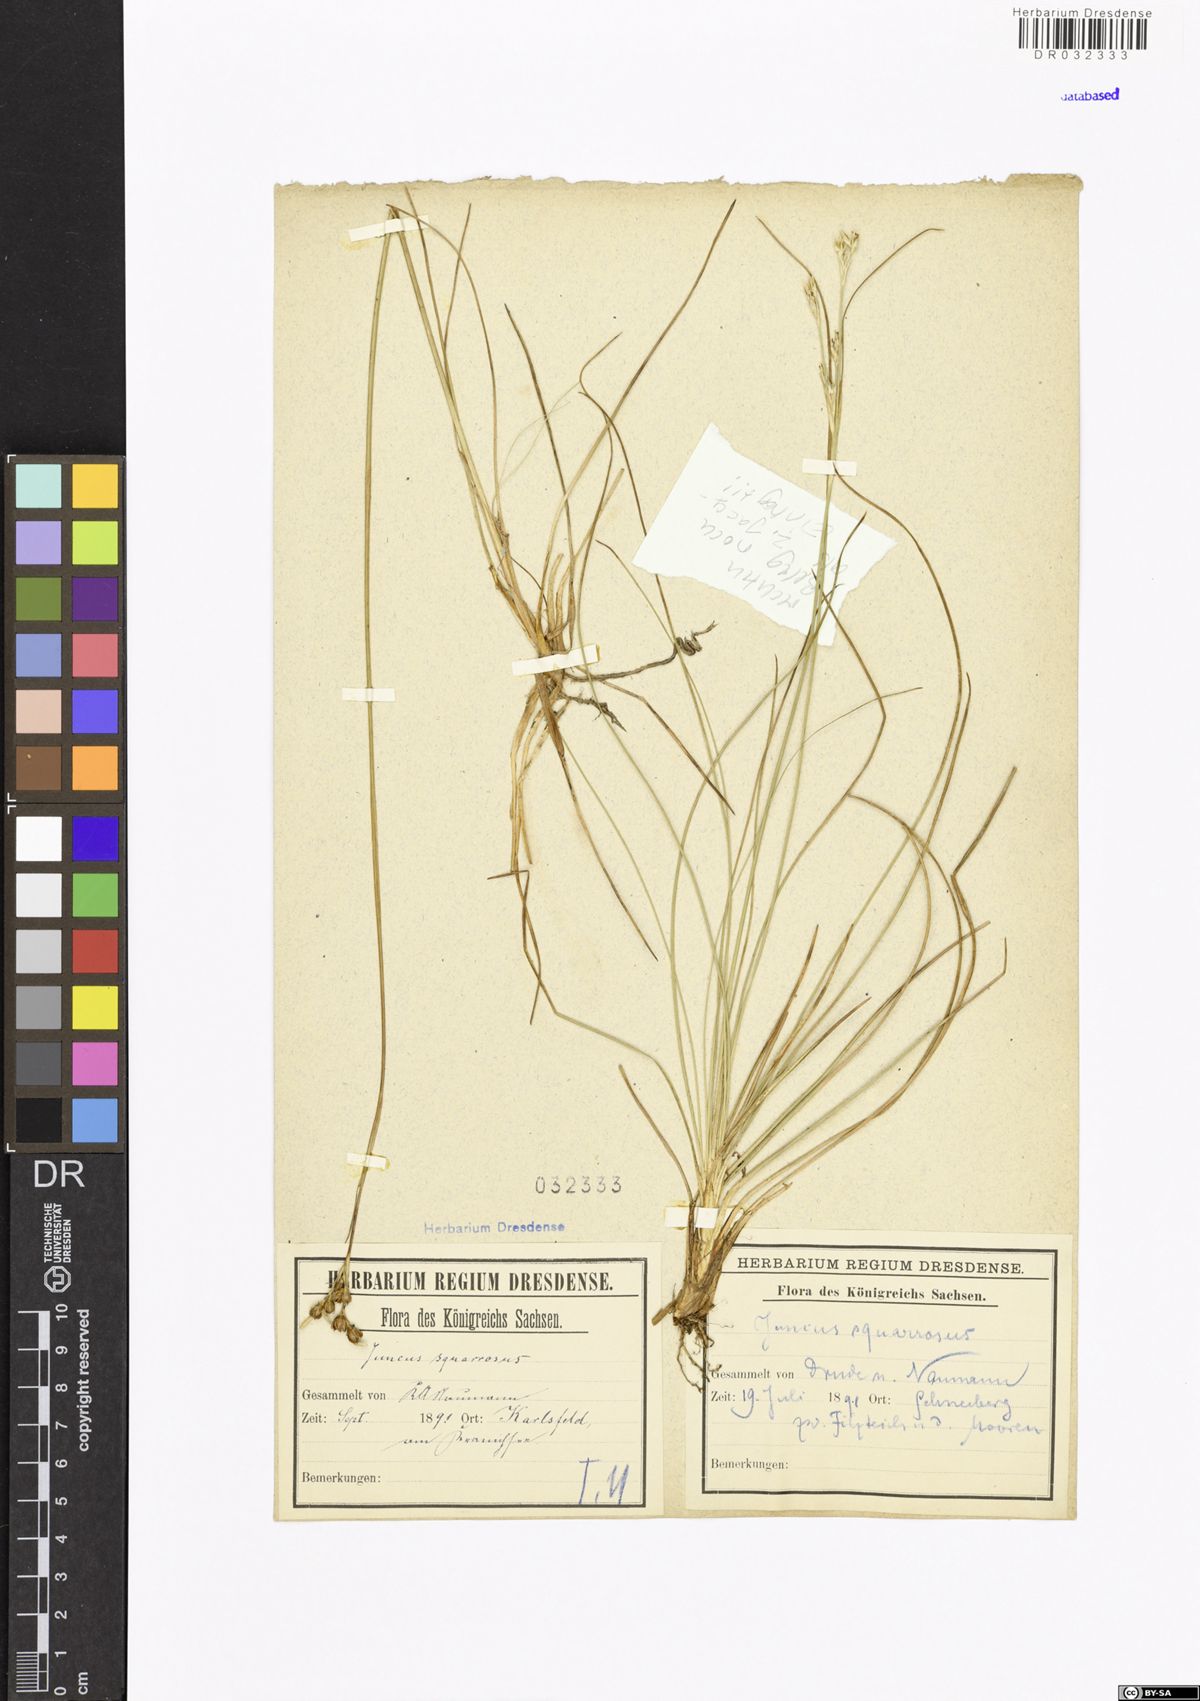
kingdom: Plantae
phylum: Tracheophyta
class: Liliopsida
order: Poales
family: Juncaceae
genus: Juncus
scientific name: Juncus squarrosus
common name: Heath rush
